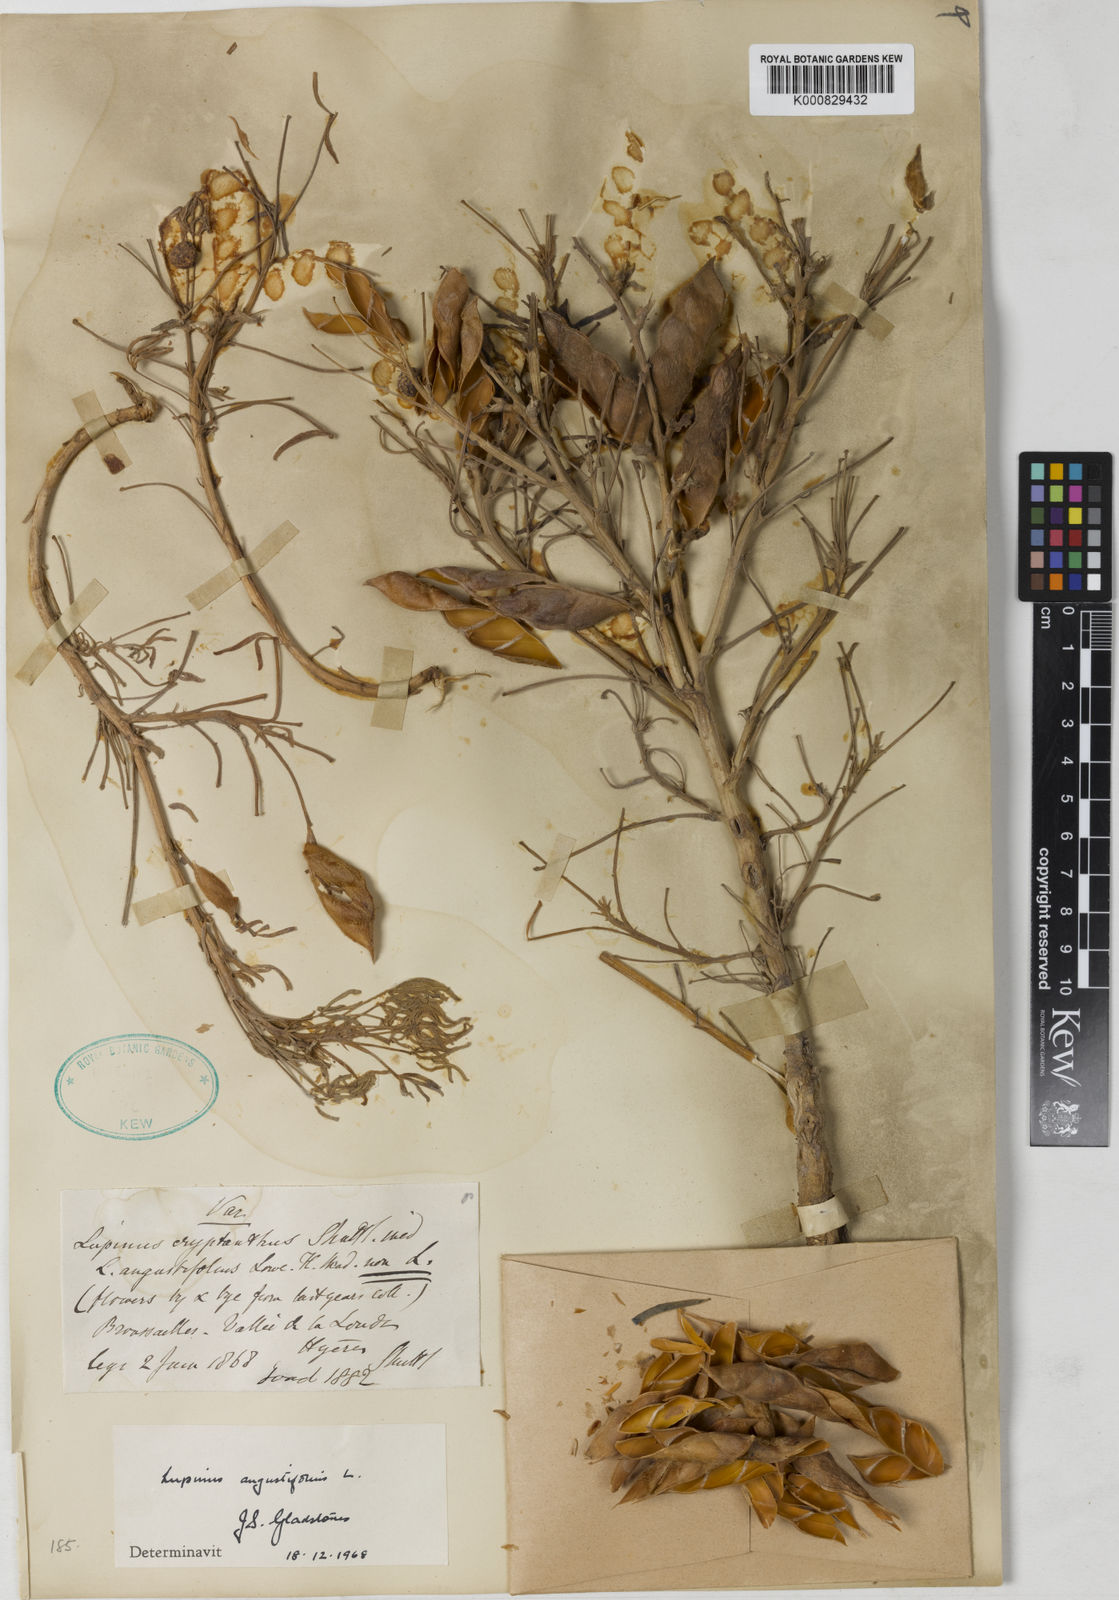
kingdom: Plantae
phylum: Tracheophyta
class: Magnoliopsida
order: Fabales
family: Fabaceae
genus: Lupinus
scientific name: Lupinus
